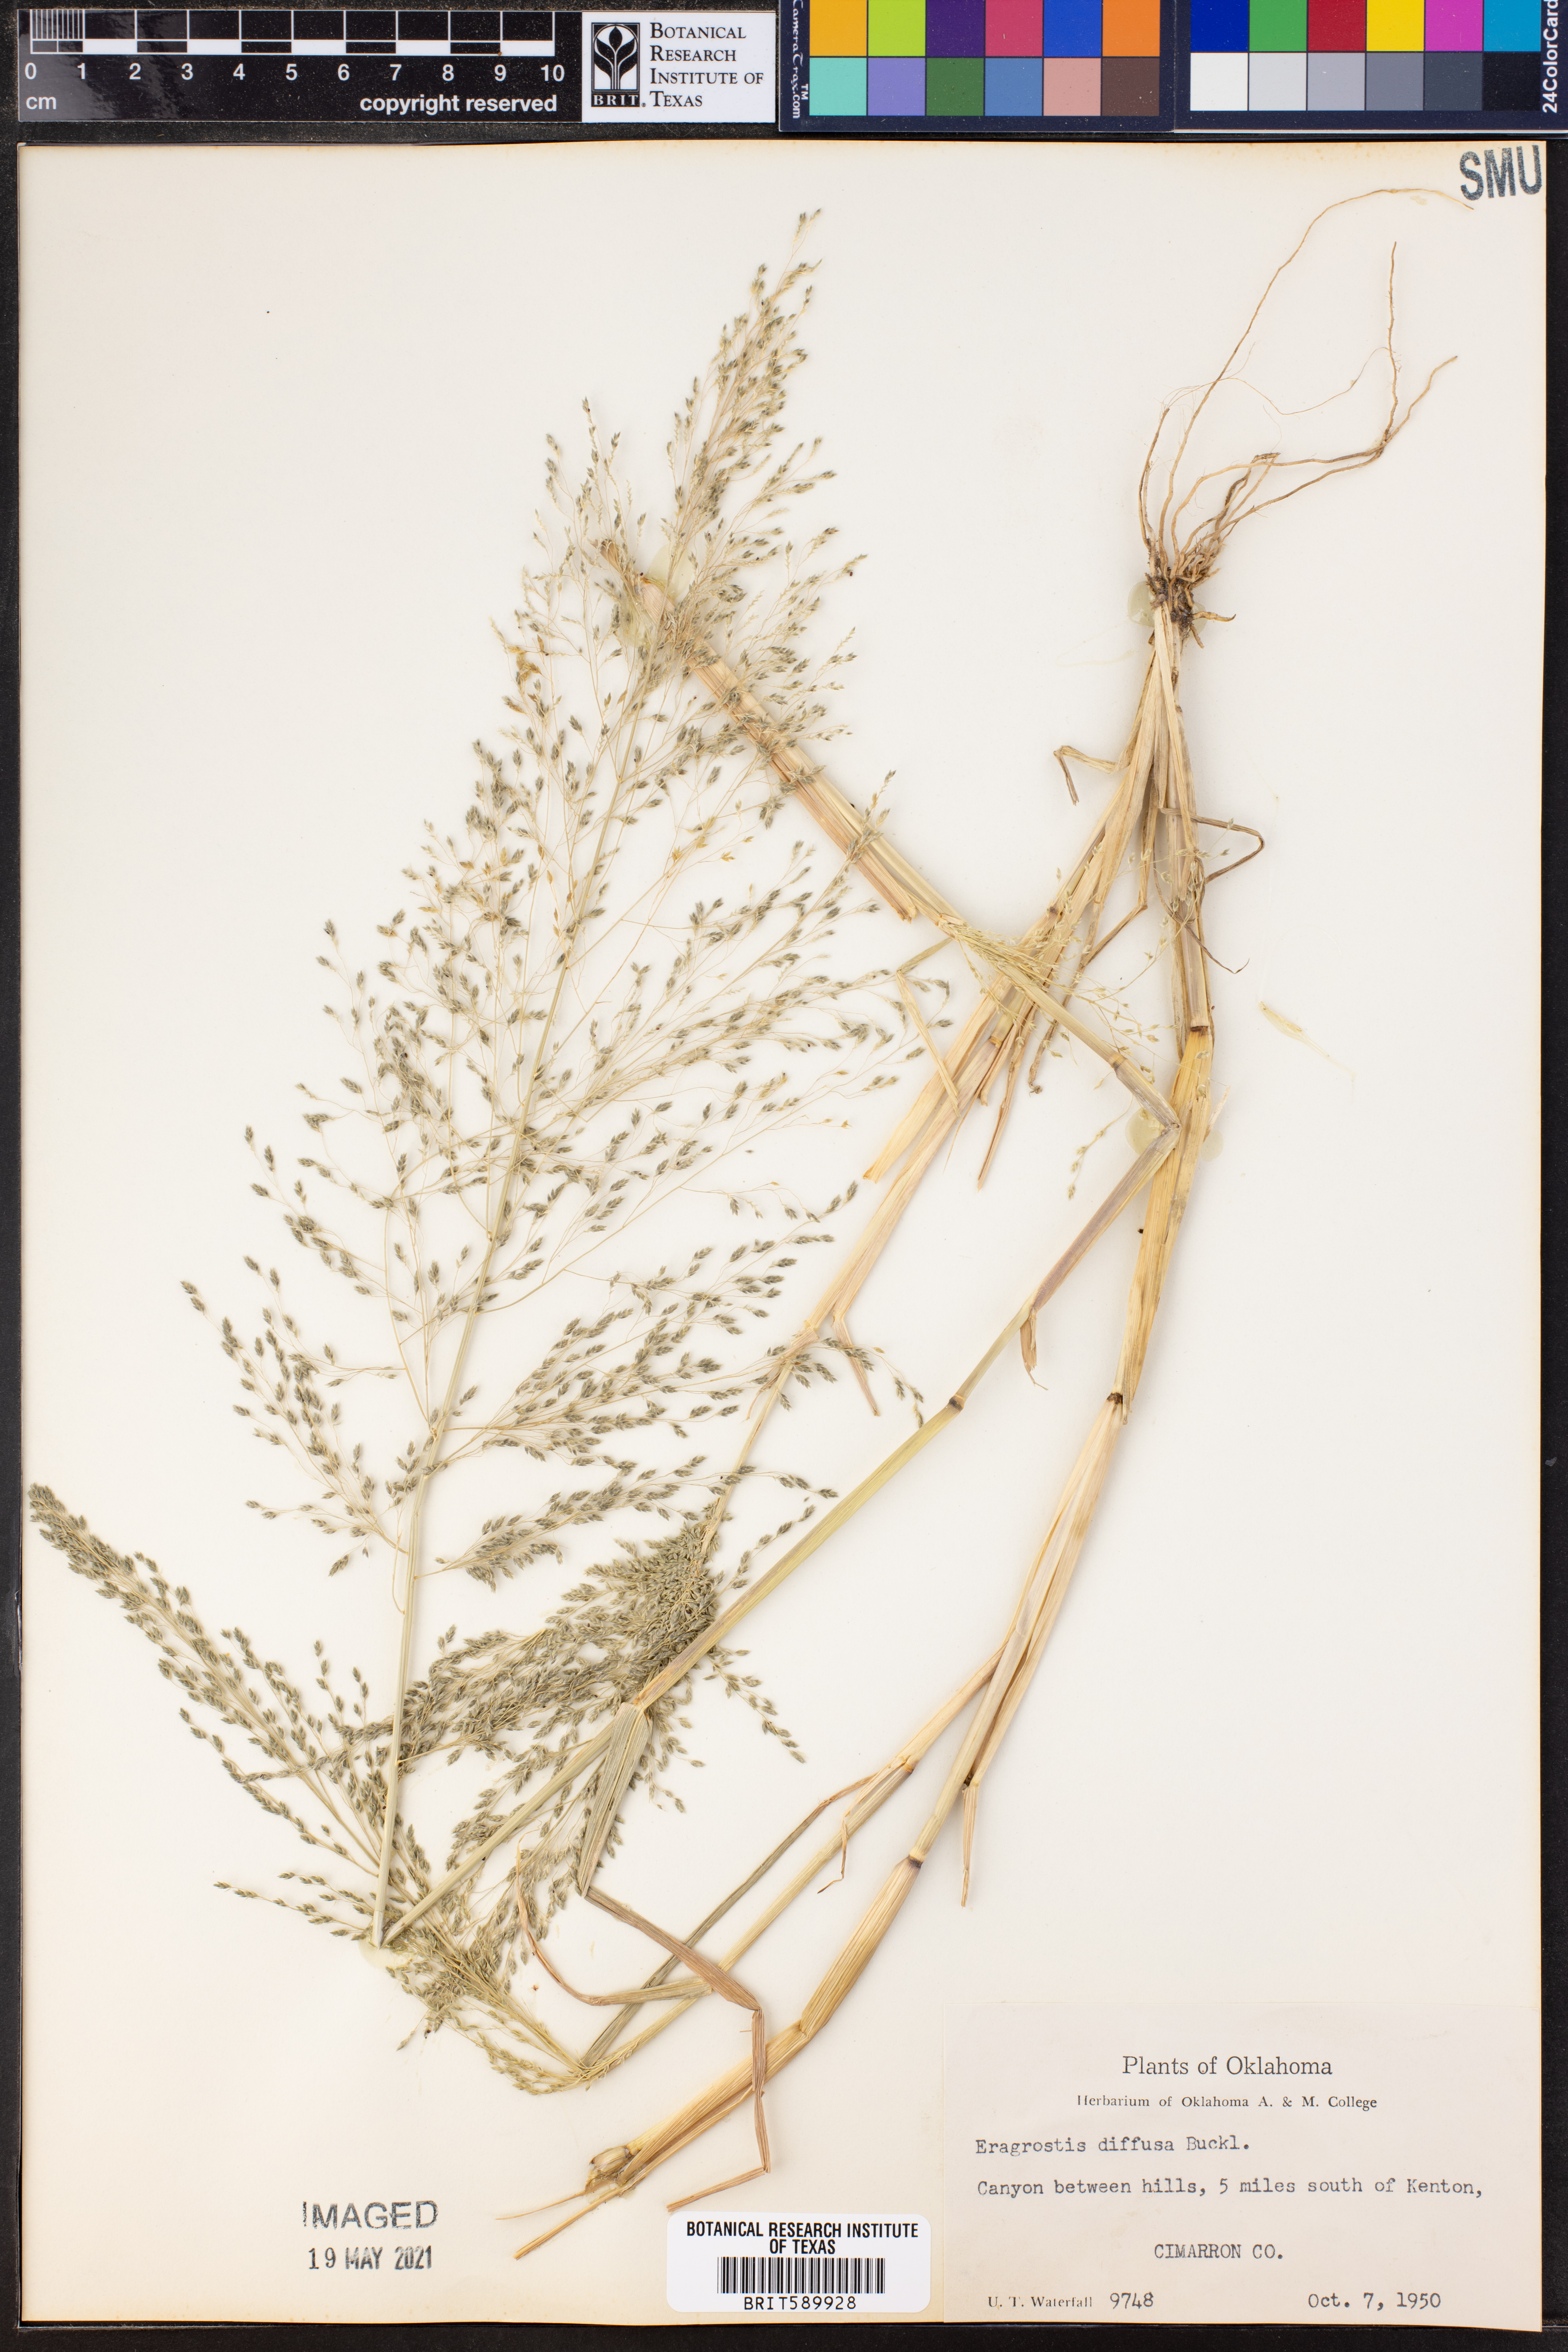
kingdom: Plantae
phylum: Tracheophyta
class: Liliopsida
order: Poales
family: Poaceae
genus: Eragrostis
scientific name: Eragrostis pectinacea
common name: Tufted lovegrass
